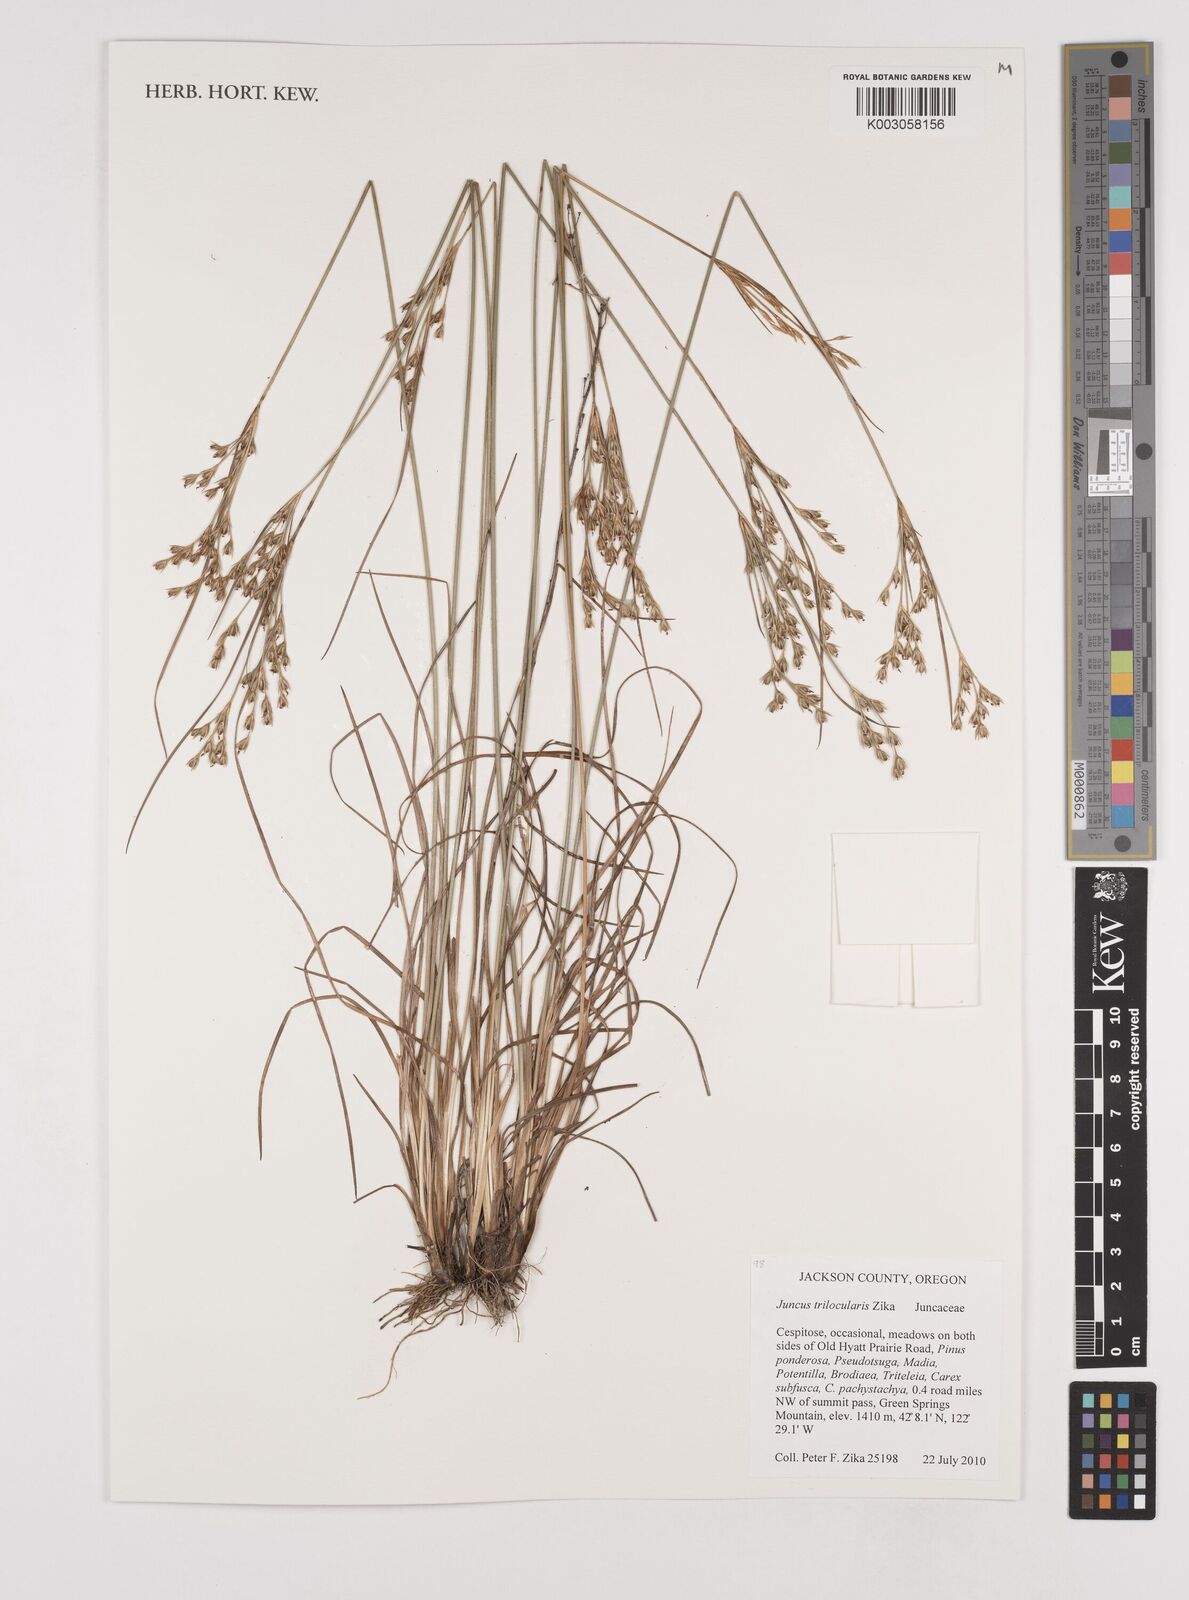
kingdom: Plantae
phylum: Tracheophyta
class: Liliopsida
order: Poales
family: Juncaceae
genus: Juncus
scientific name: Juncus trilocularis
